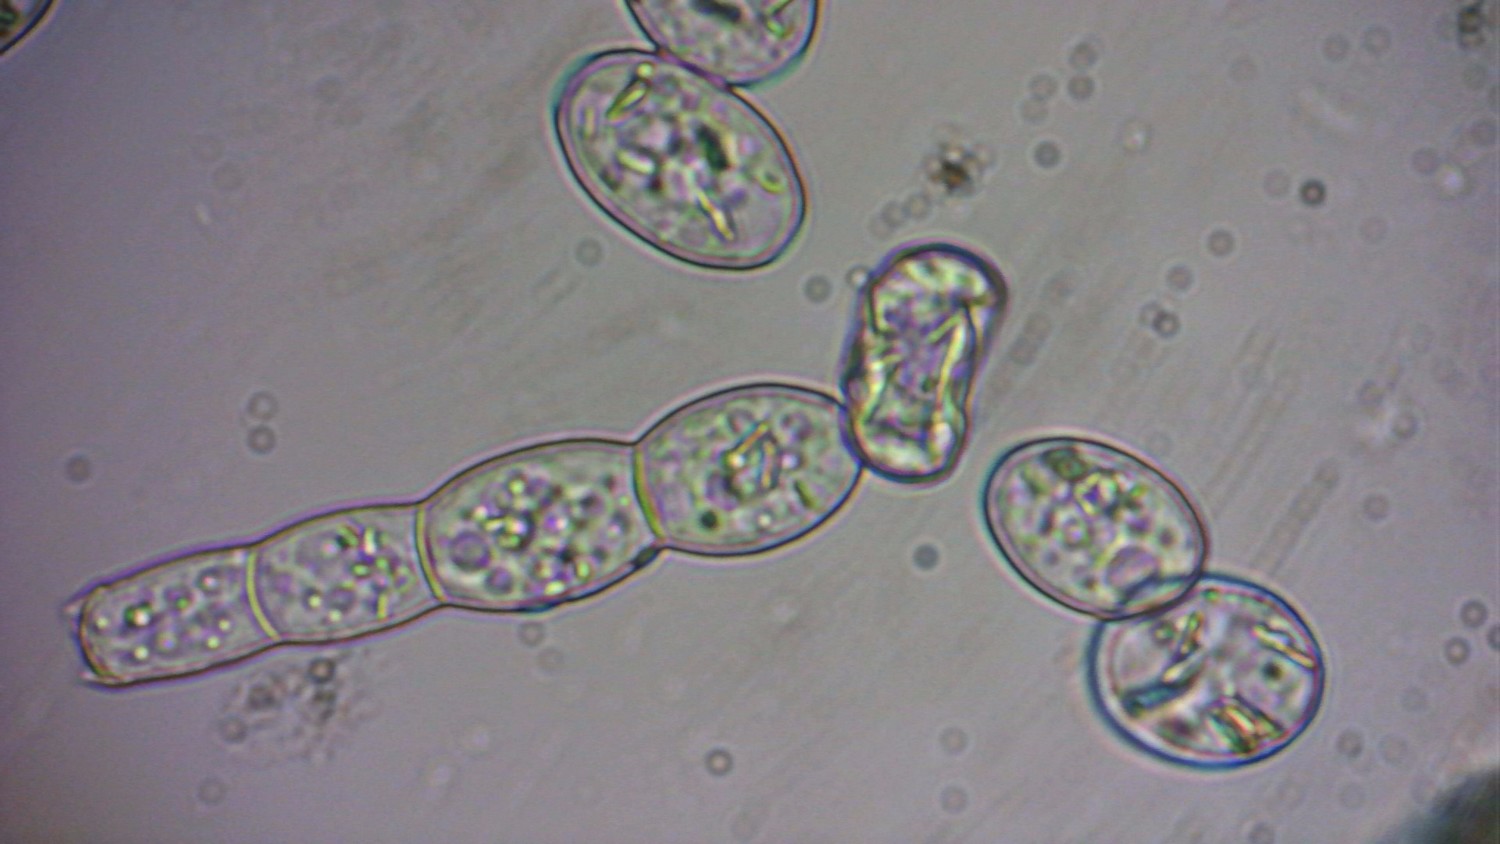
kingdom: Fungi
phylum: Ascomycota
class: Leotiomycetes
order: Helotiales
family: Erysiphaceae
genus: Podosphaera
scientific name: Podosphaera clandestina
